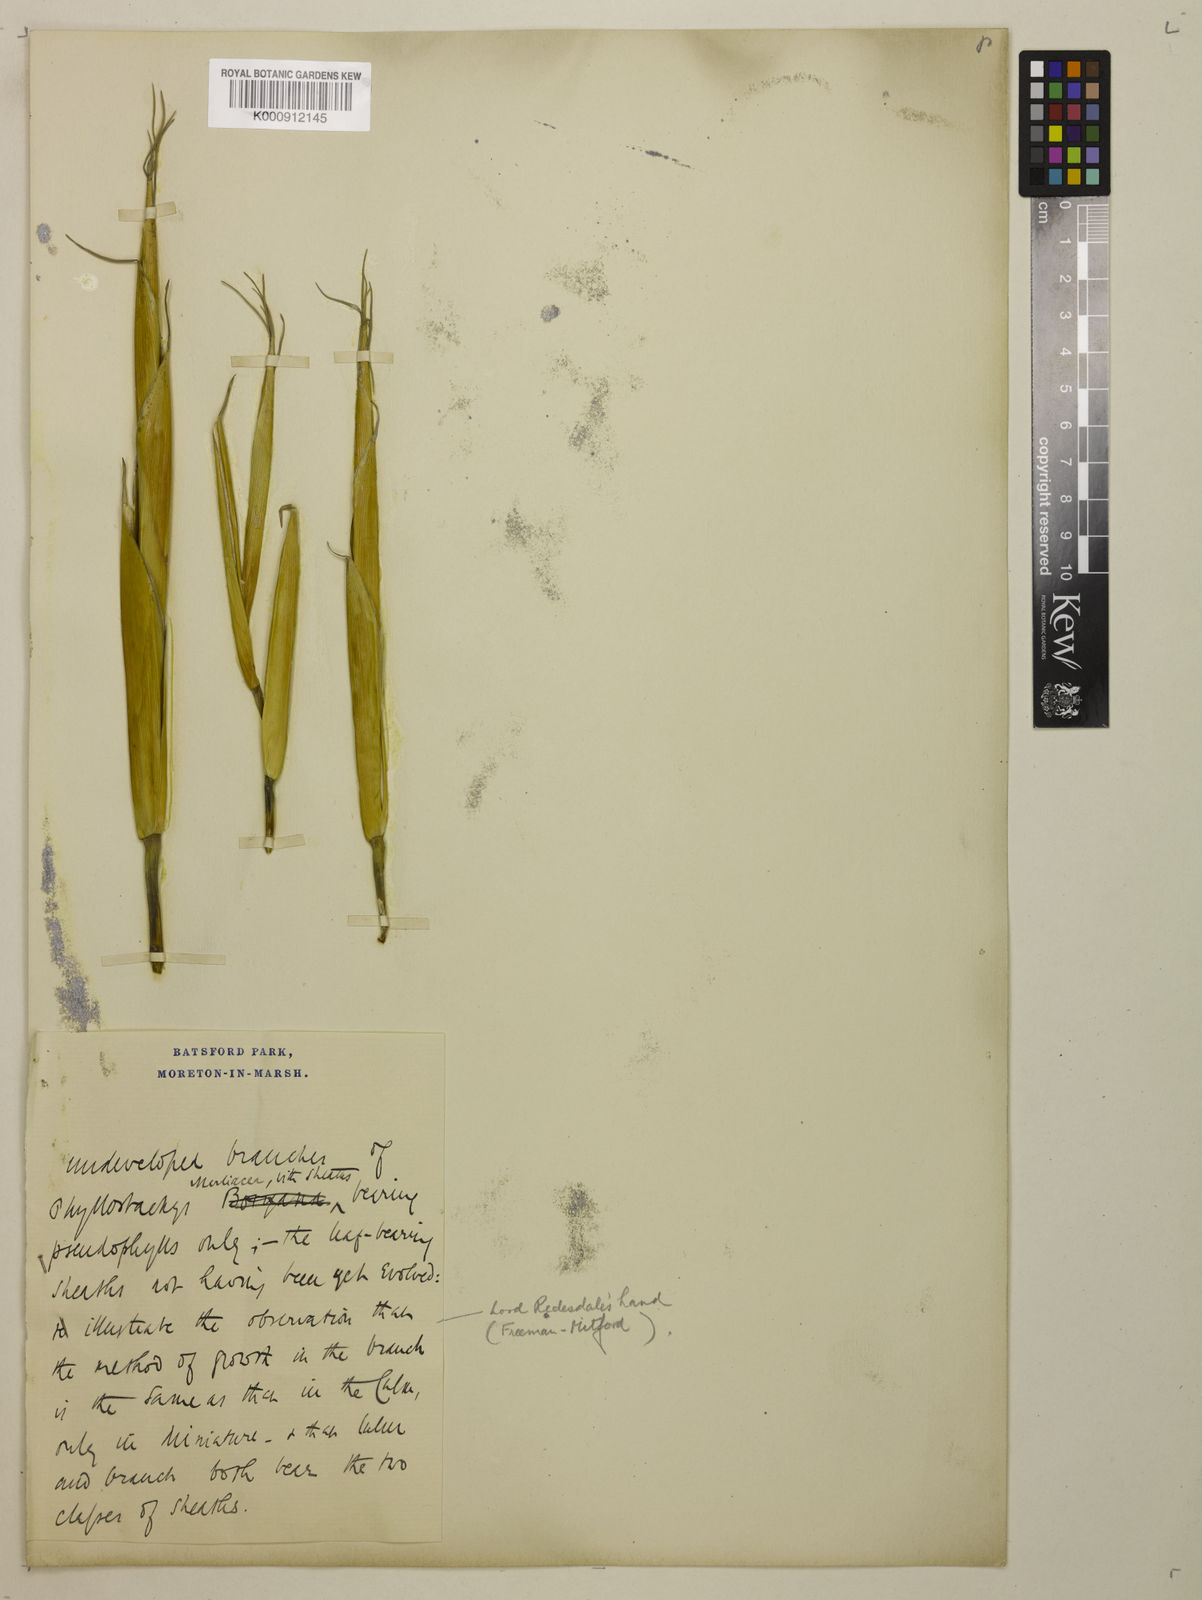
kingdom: Plantae
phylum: Tracheophyta
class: Liliopsida
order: Poales
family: Poaceae
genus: Phyllostachys
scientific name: Phyllostachys reticulata
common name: Bamboo
